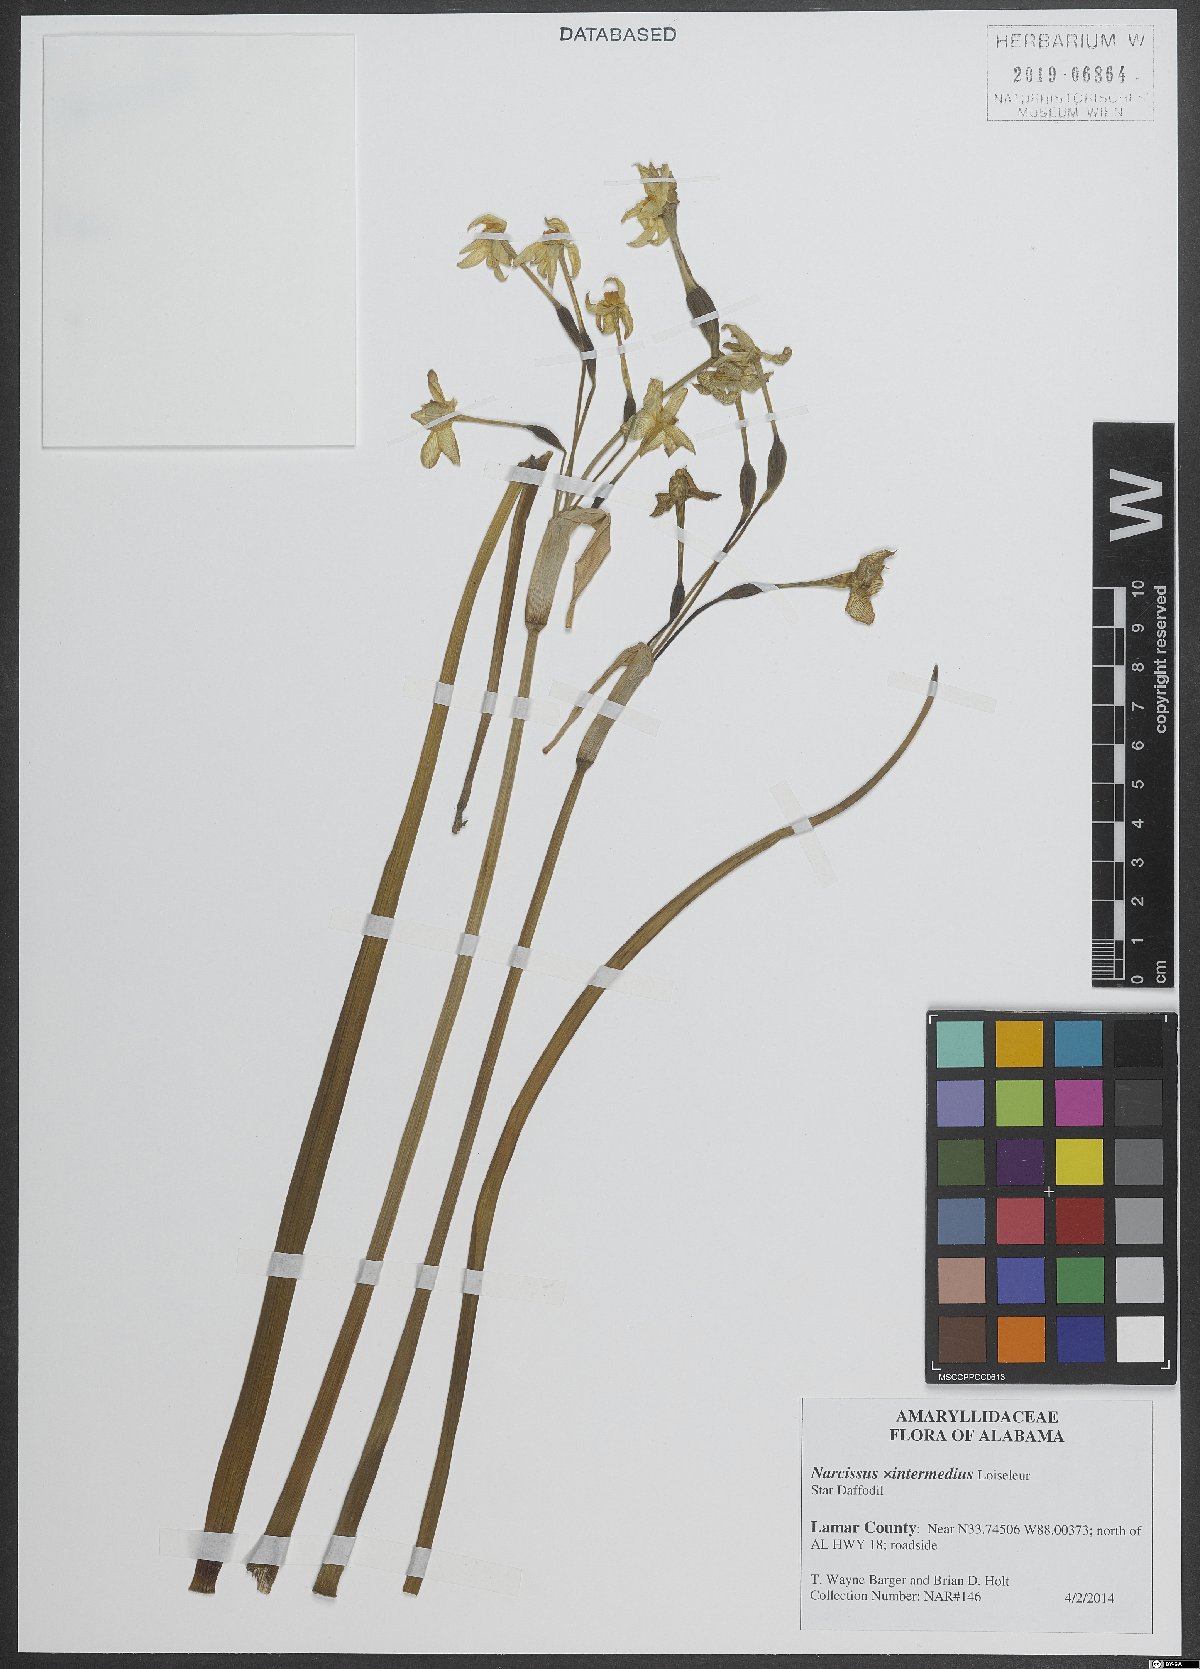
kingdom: Plantae
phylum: Tracheophyta
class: Liliopsida
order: Asparagales
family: Amaryllidaceae
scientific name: Amaryllidaceae
